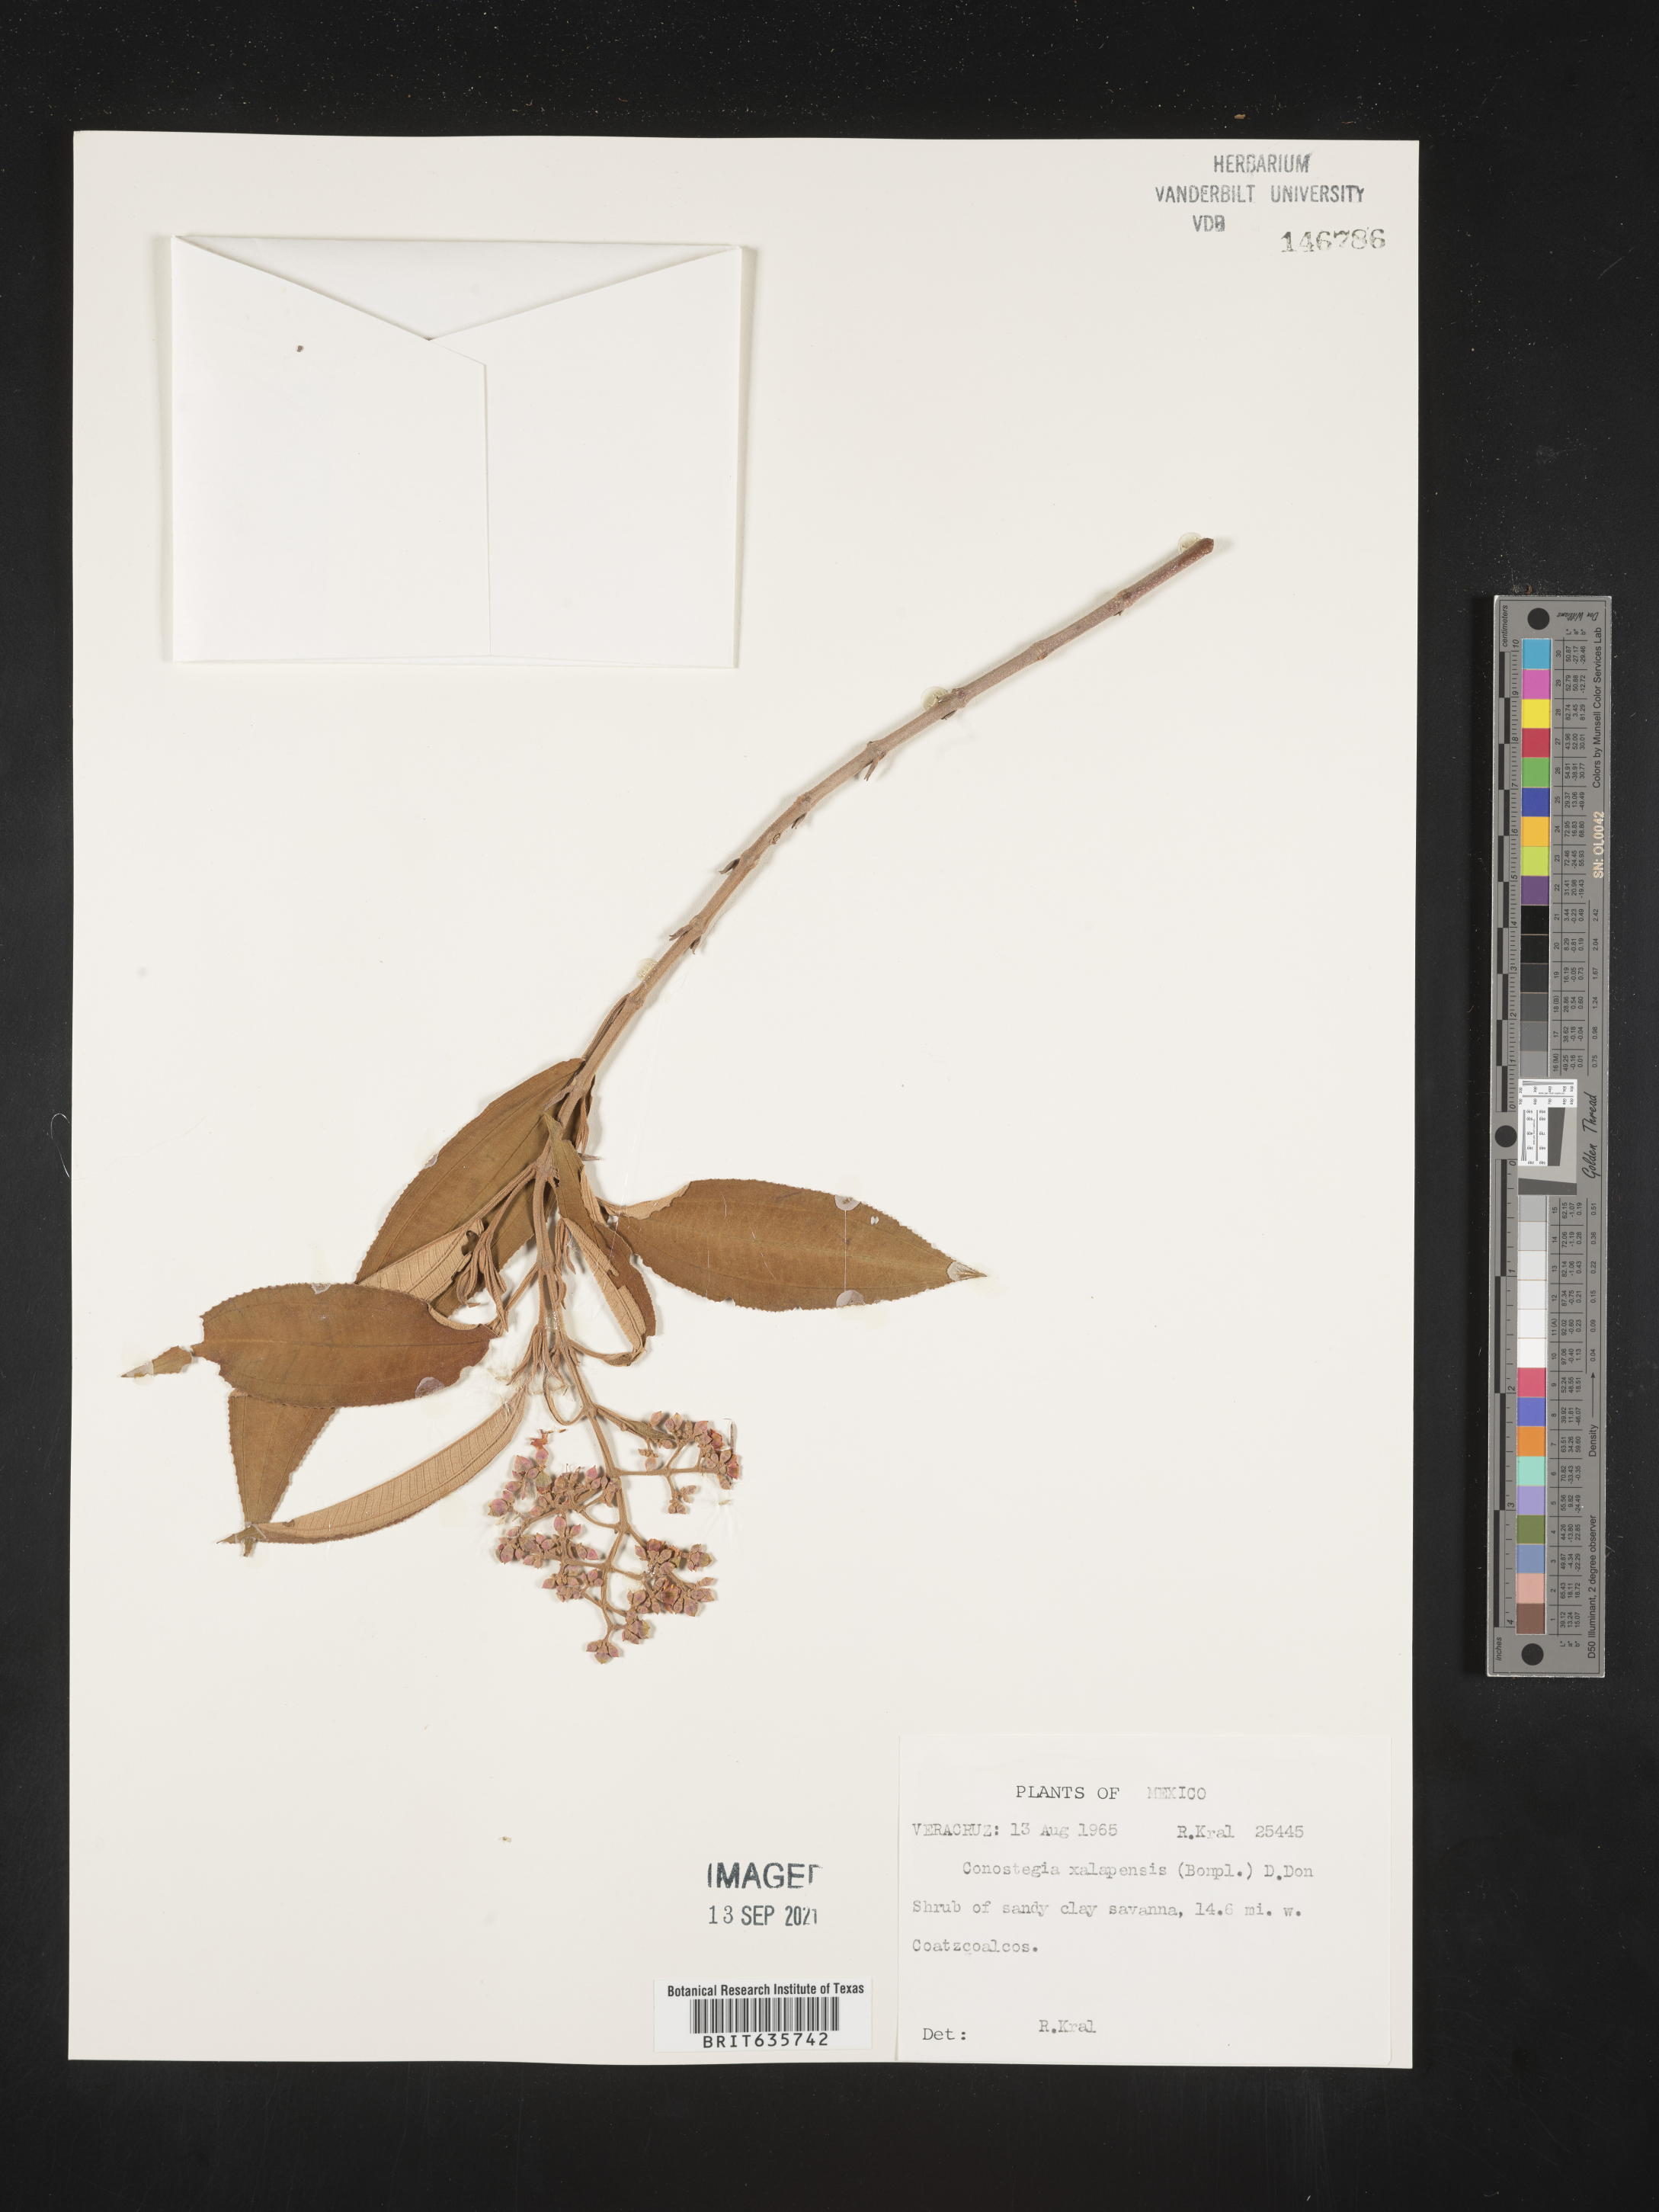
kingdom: Plantae
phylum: Tracheophyta
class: Magnoliopsida
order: Myrtales
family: Melastomataceae
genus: Miconia
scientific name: Miconia
